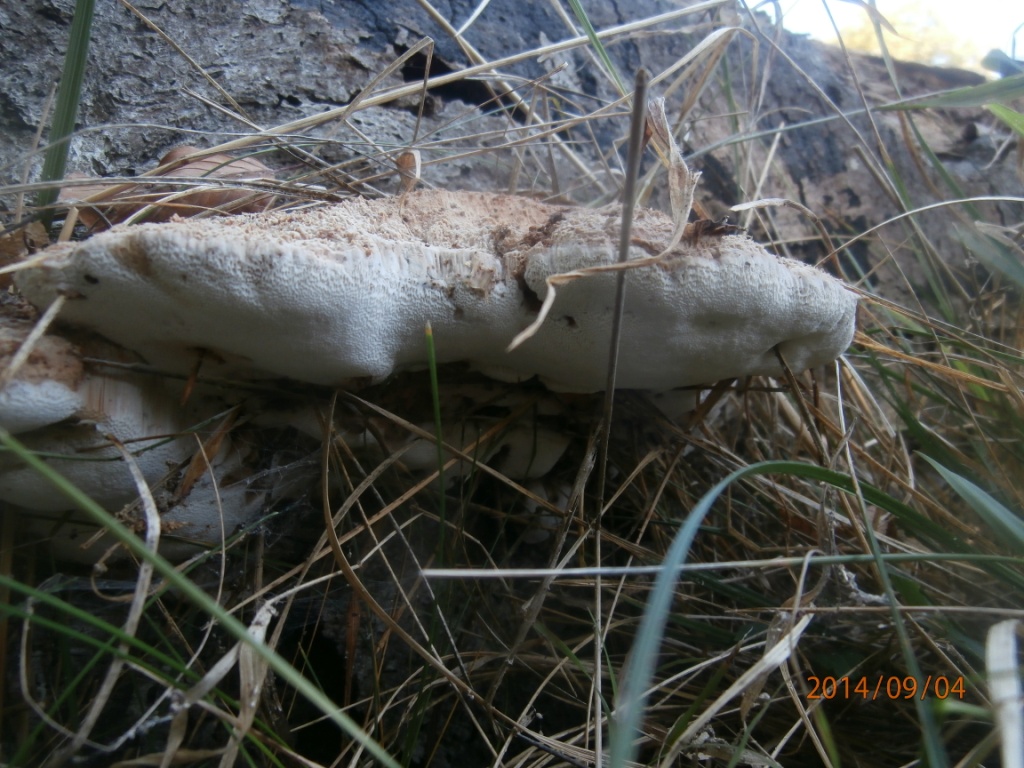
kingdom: Fungi
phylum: Basidiomycota
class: Agaricomycetes
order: Polyporales
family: Meruliaceae
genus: Pappia
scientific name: Pappia fissilis
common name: rosa fedtporesvamp
